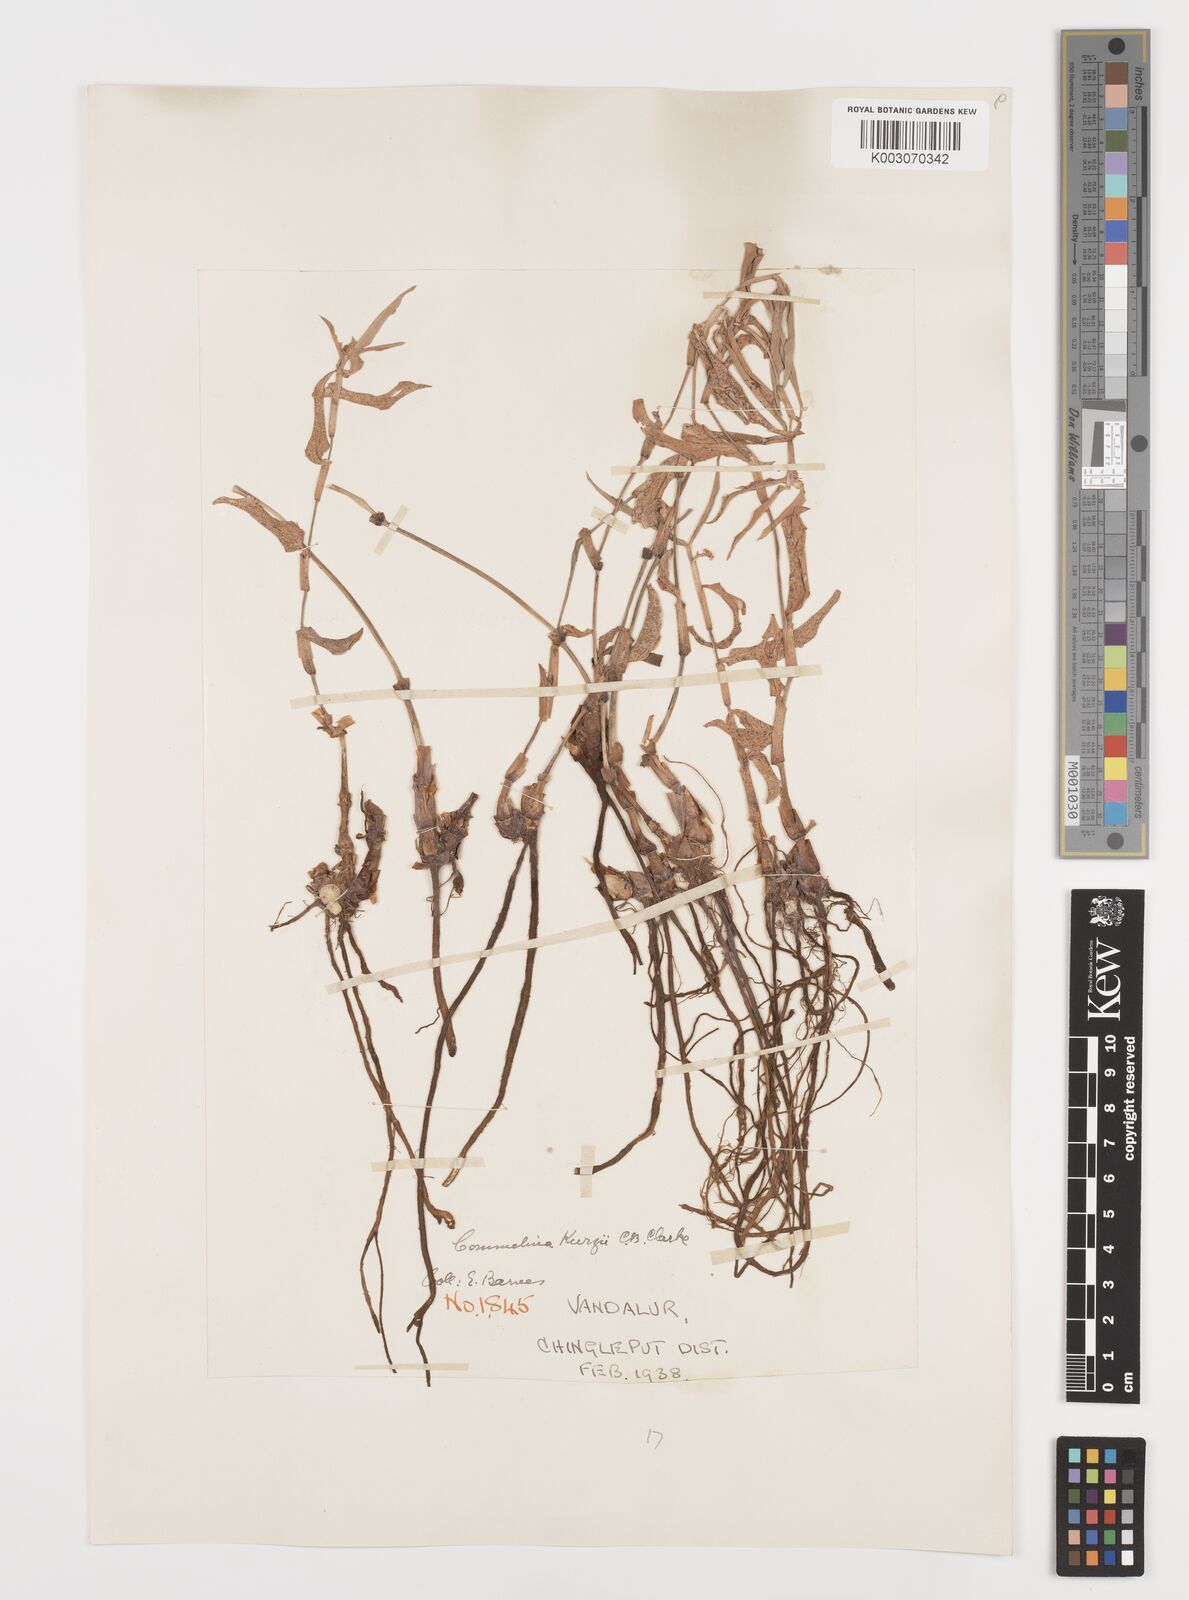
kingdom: Plantae
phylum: Tracheophyta
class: Liliopsida
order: Commelinales
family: Commelinaceae
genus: Commelina
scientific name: Commelina undulata
